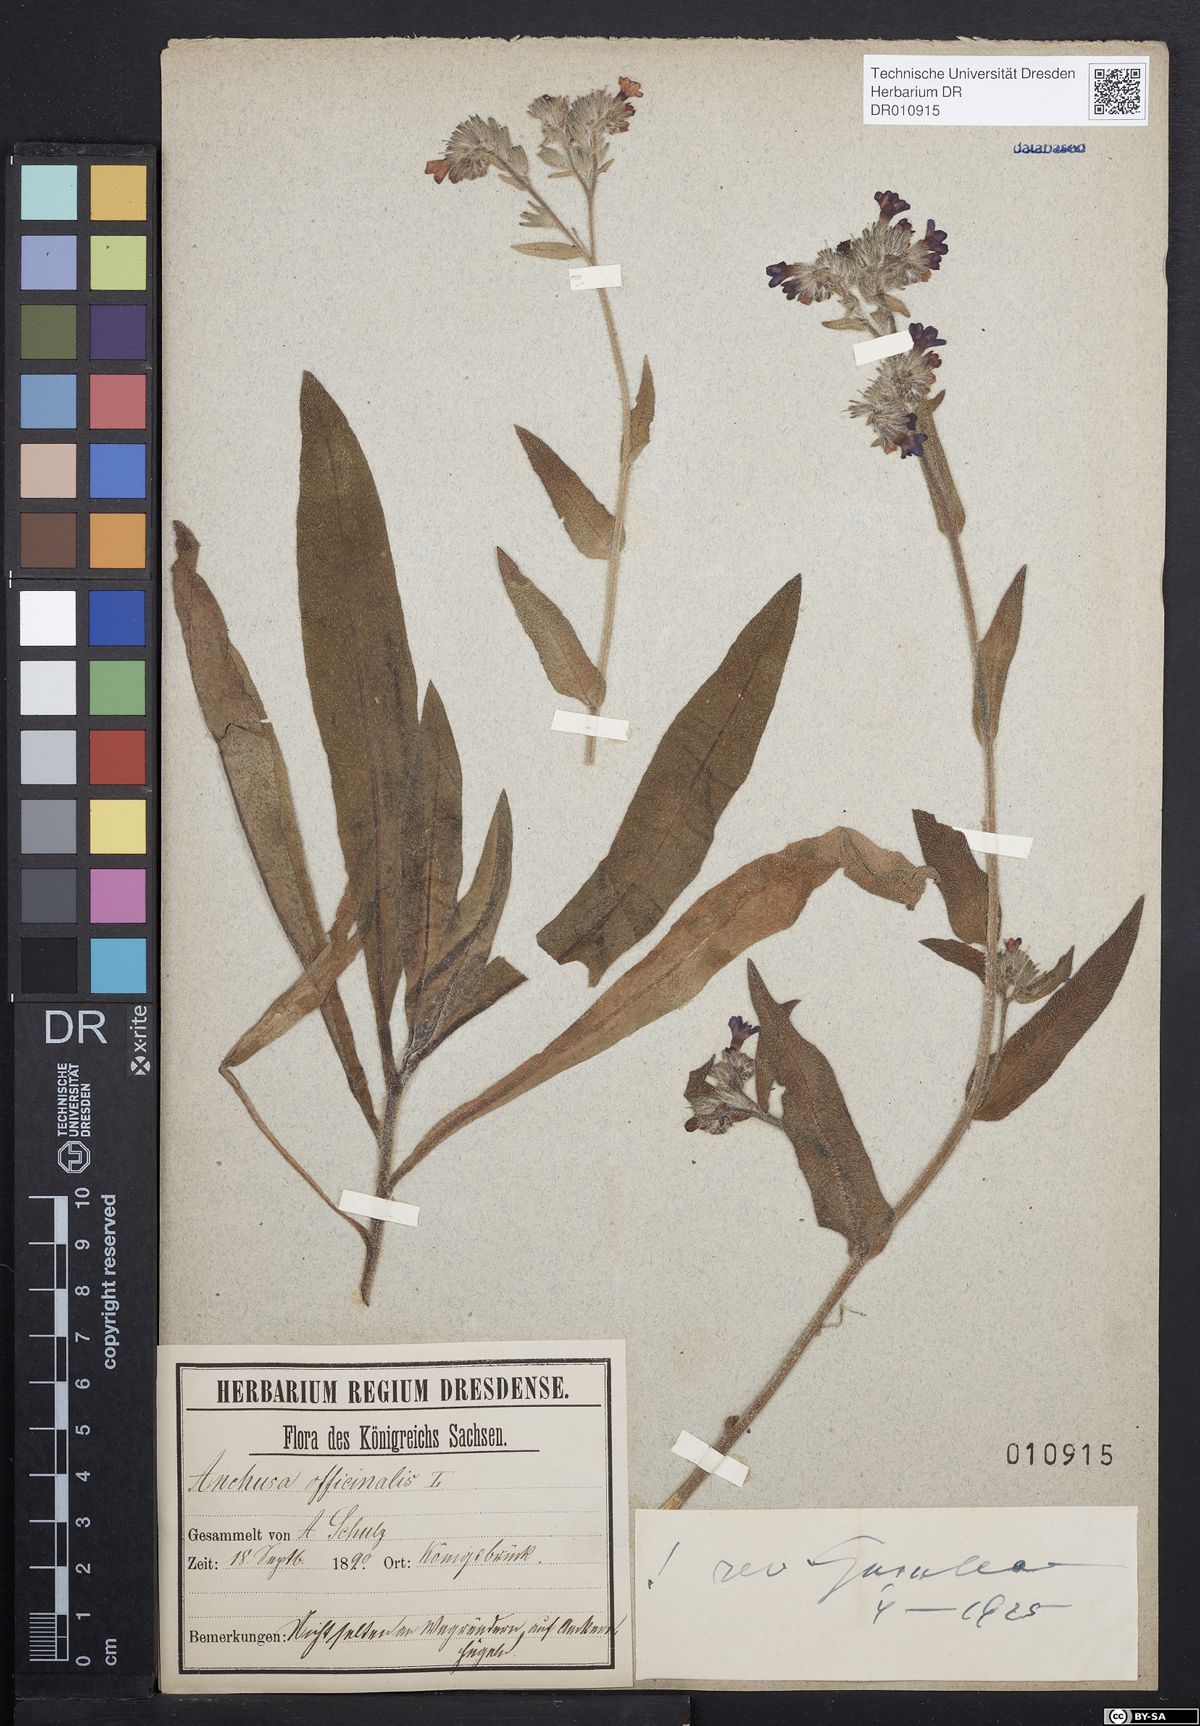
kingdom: Plantae
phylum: Tracheophyta
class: Magnoliopsida
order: Boraginales
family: Boraginaceae
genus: Anchusa
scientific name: Anchusa officinalis
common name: Alkanet
